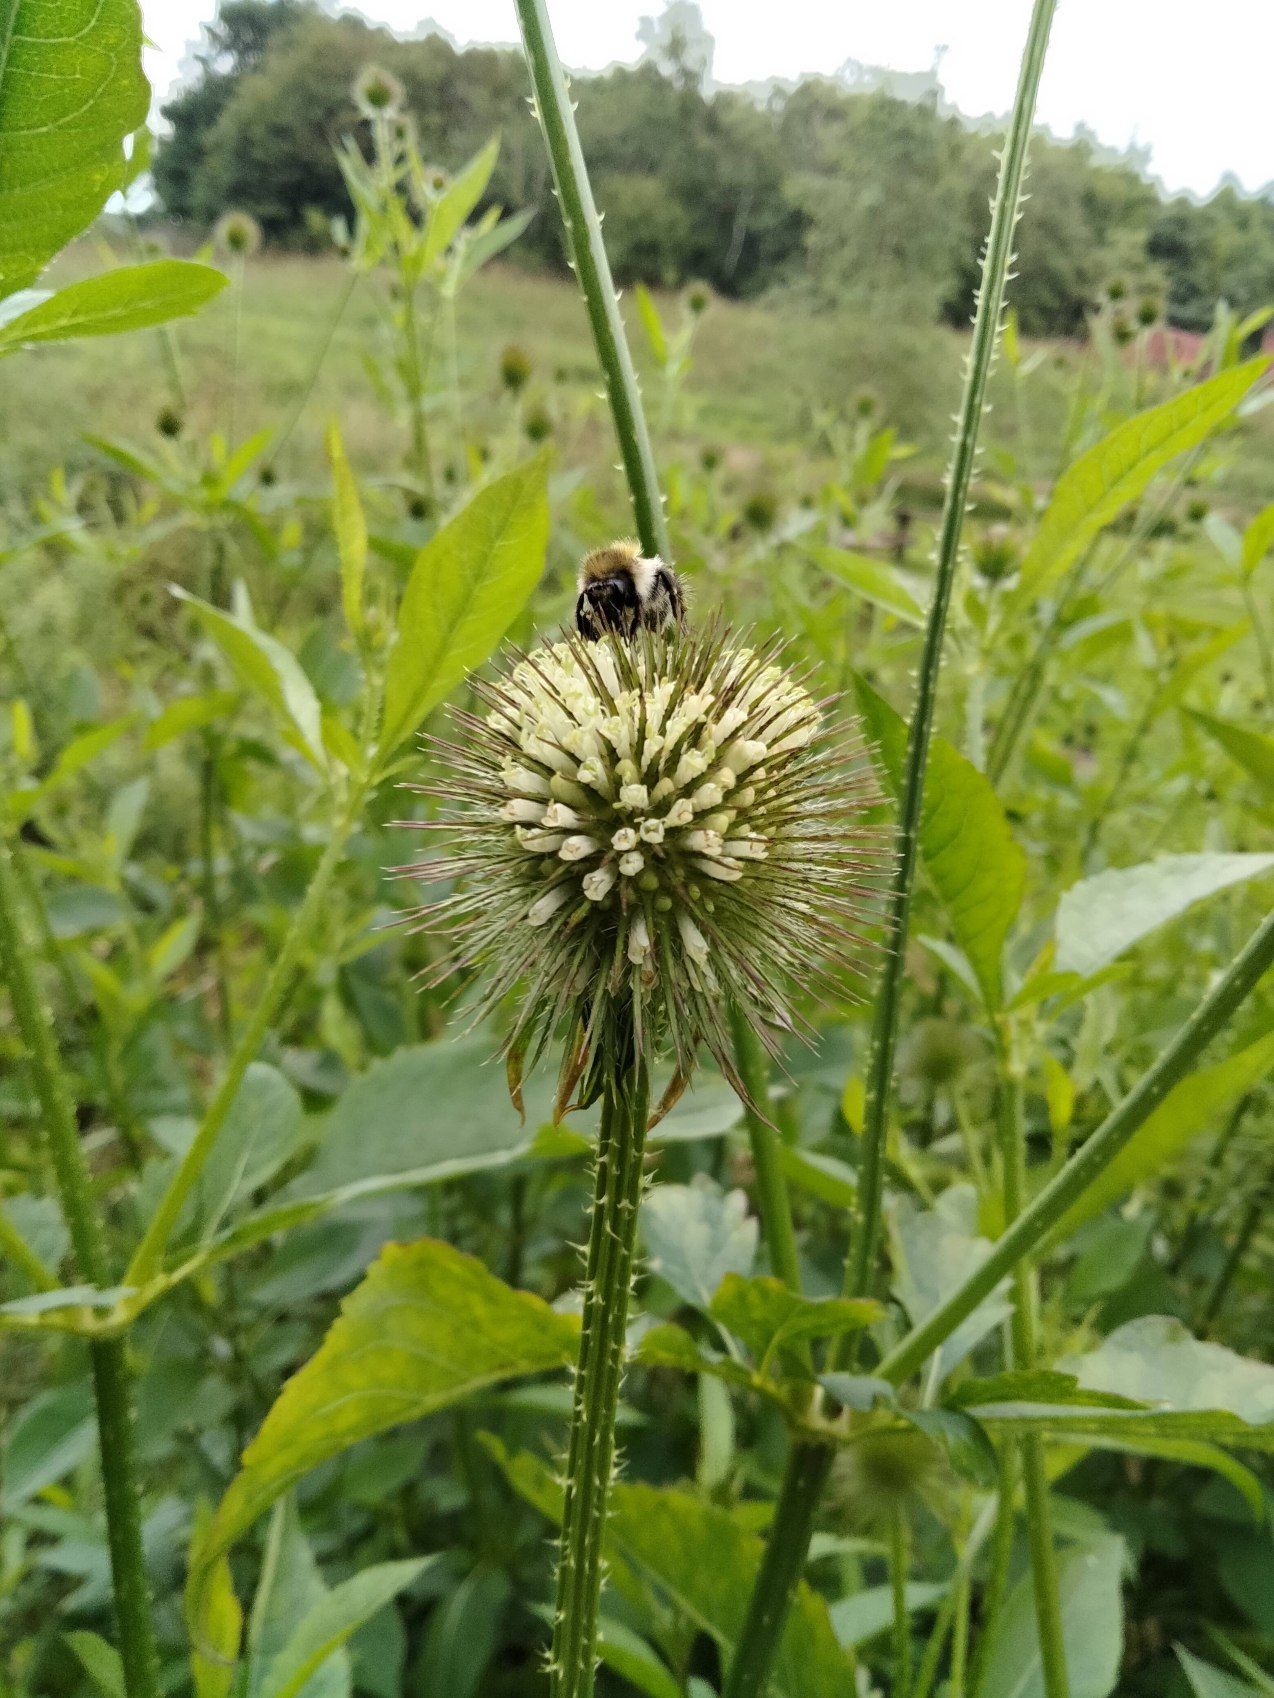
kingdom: Plantae
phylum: Tracheophyta
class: Magnoliopsida
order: Dipsacales
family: Caprifoliaceae
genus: Dipsacus
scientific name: Dipsacus strigosus
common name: Pindsvin-kartebolle
